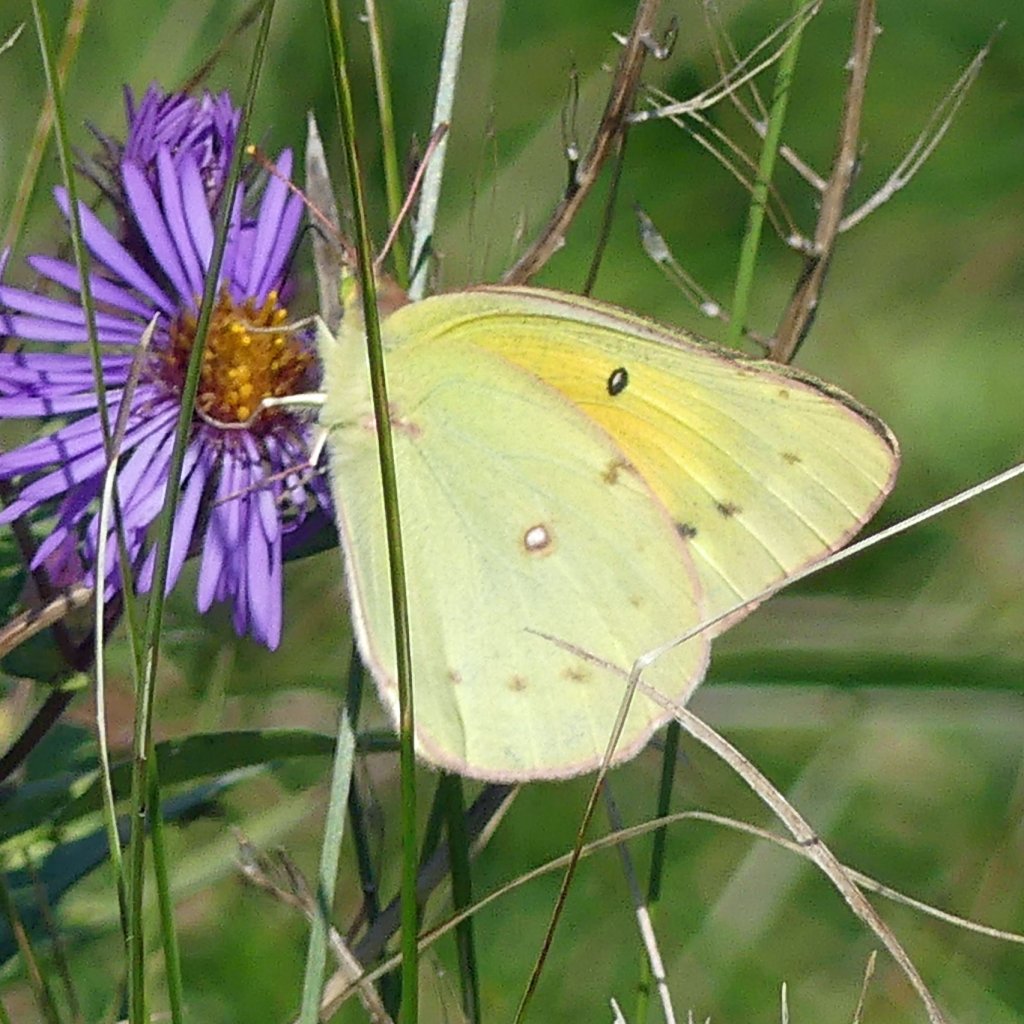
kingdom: Animalia
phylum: Arthropoda
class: Insecta
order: Lepidoptera
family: Pieridae
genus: Colias
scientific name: Colias eurytheme
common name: Orange Sulphur
